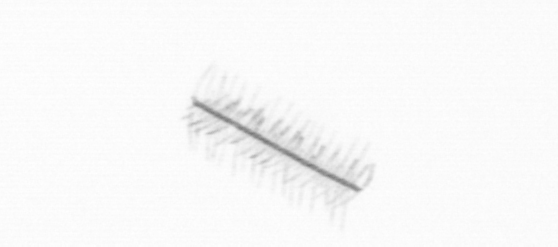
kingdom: Chromista
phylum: Ochrophyta
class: Bacillariophyceae
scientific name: Bacillariophyceae
